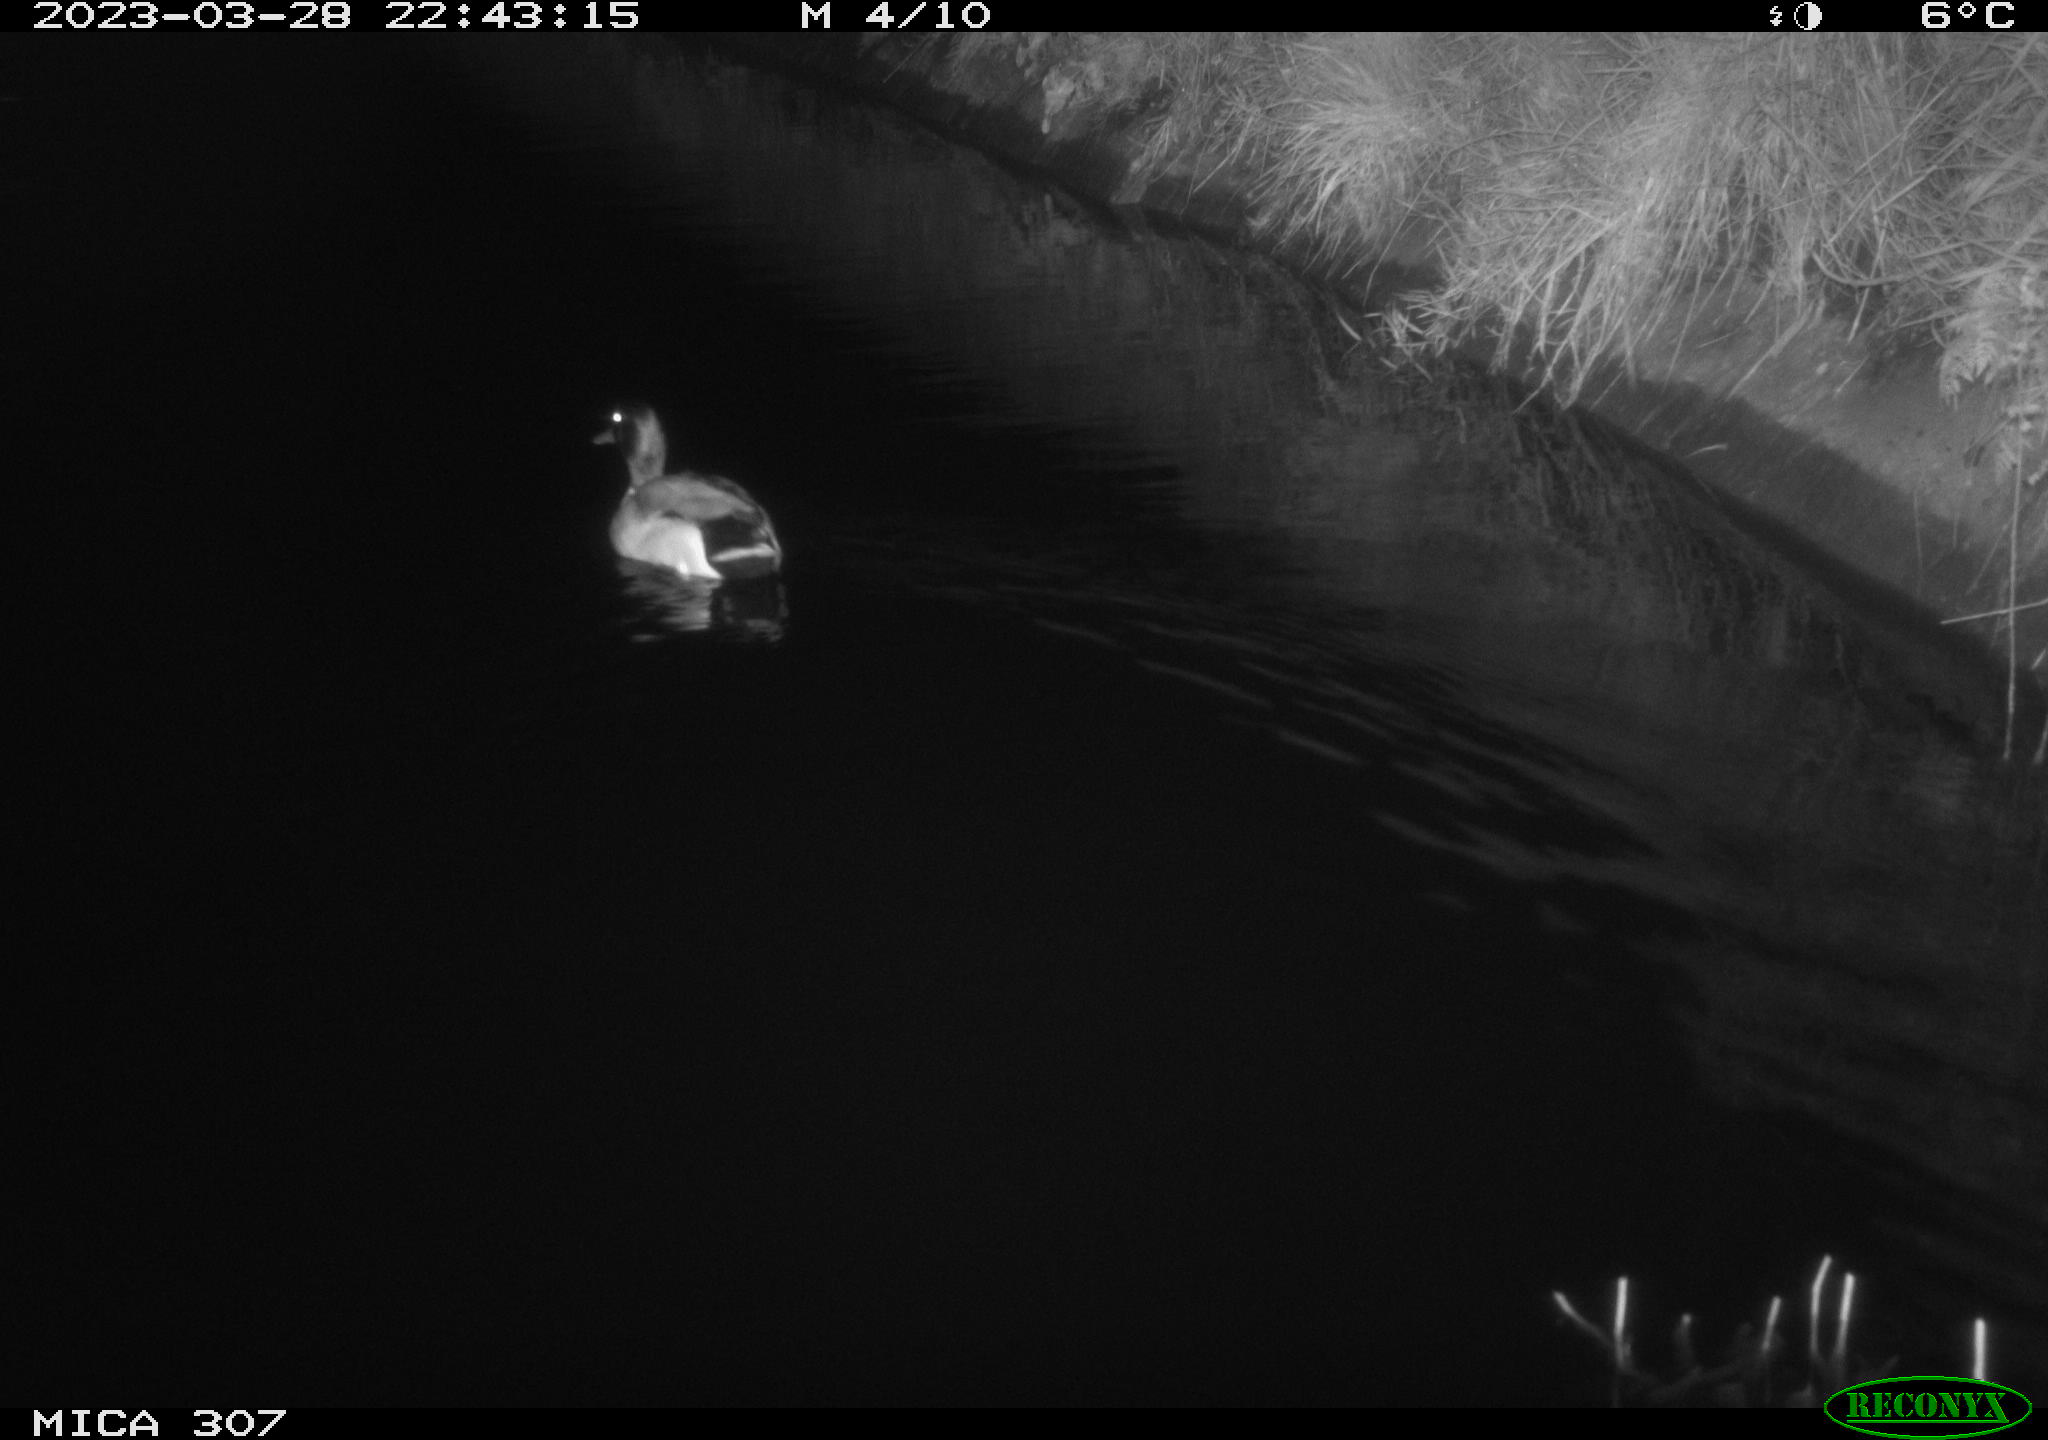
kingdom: Animalia
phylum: Chordata
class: Aves
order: Anseriformes
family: Anatidae
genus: Anas
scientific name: Anas
